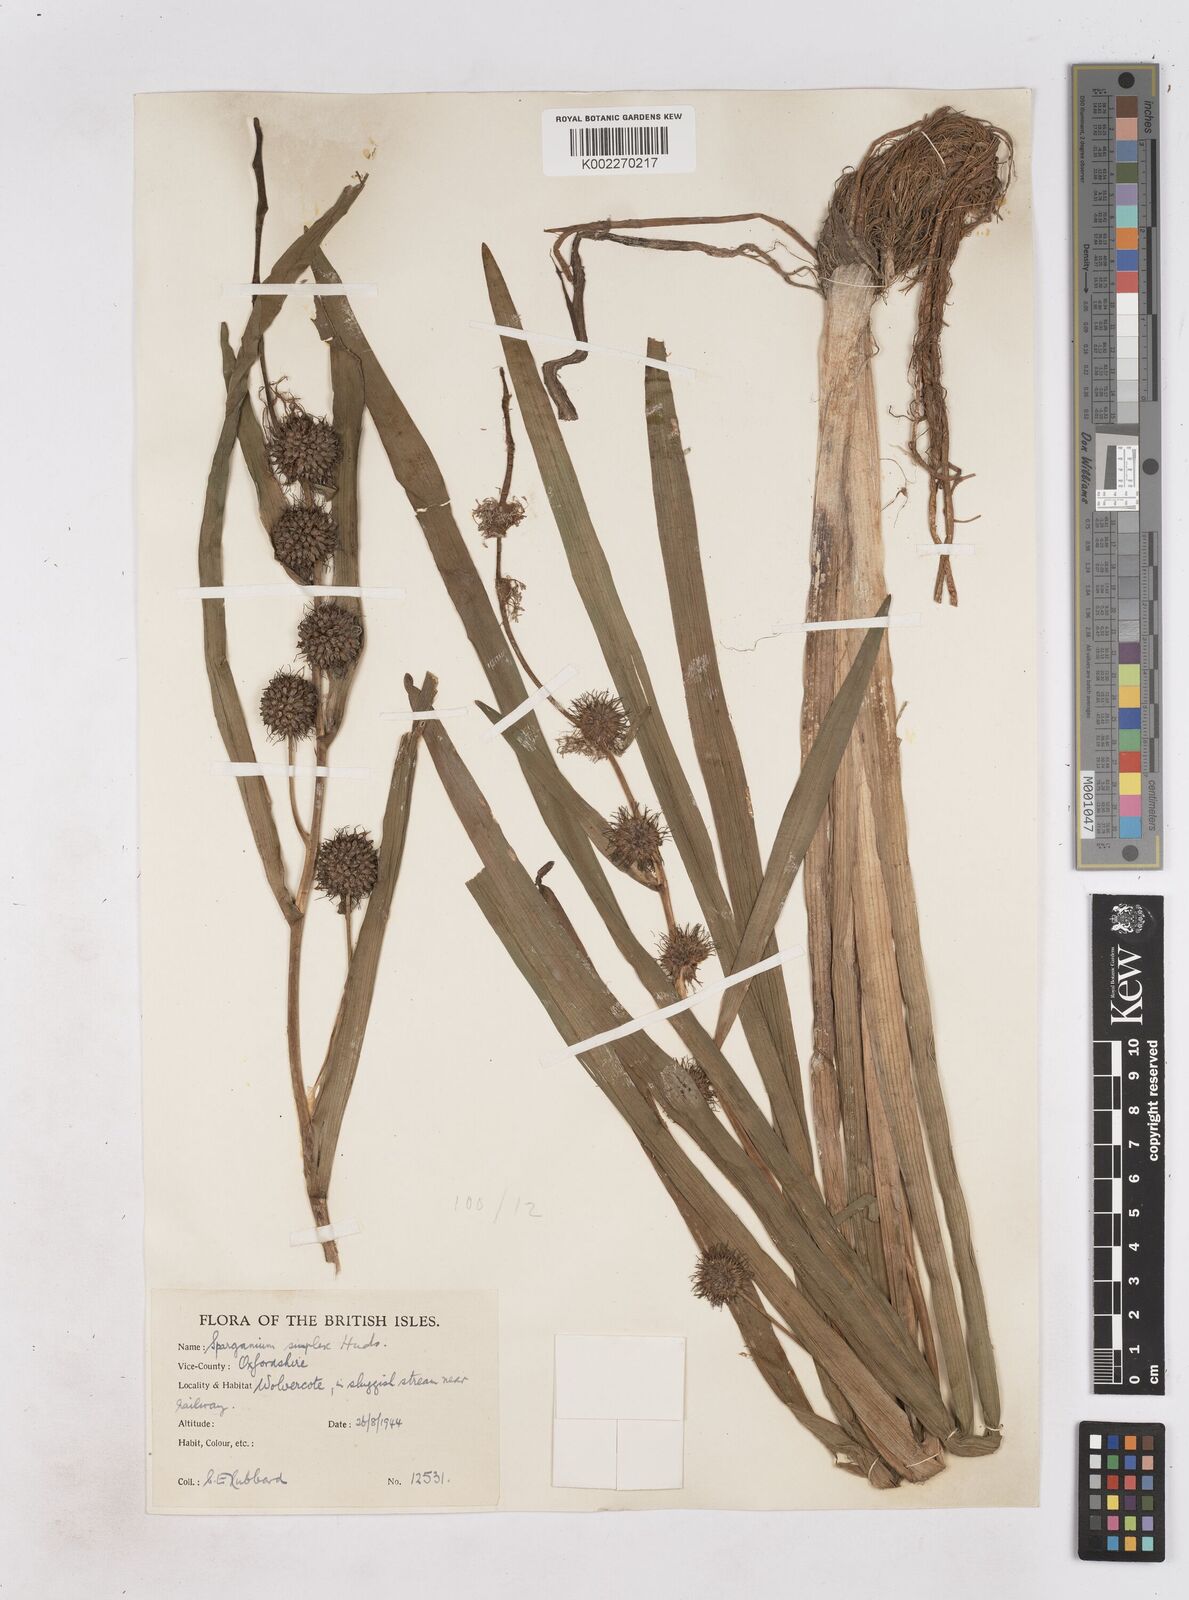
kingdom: Plantae
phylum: Tracheophyta
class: Liliopsida
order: Poales
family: Typhaceae
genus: Sparganium
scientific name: Sparganium emersum
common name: Unbranched bur-reed
